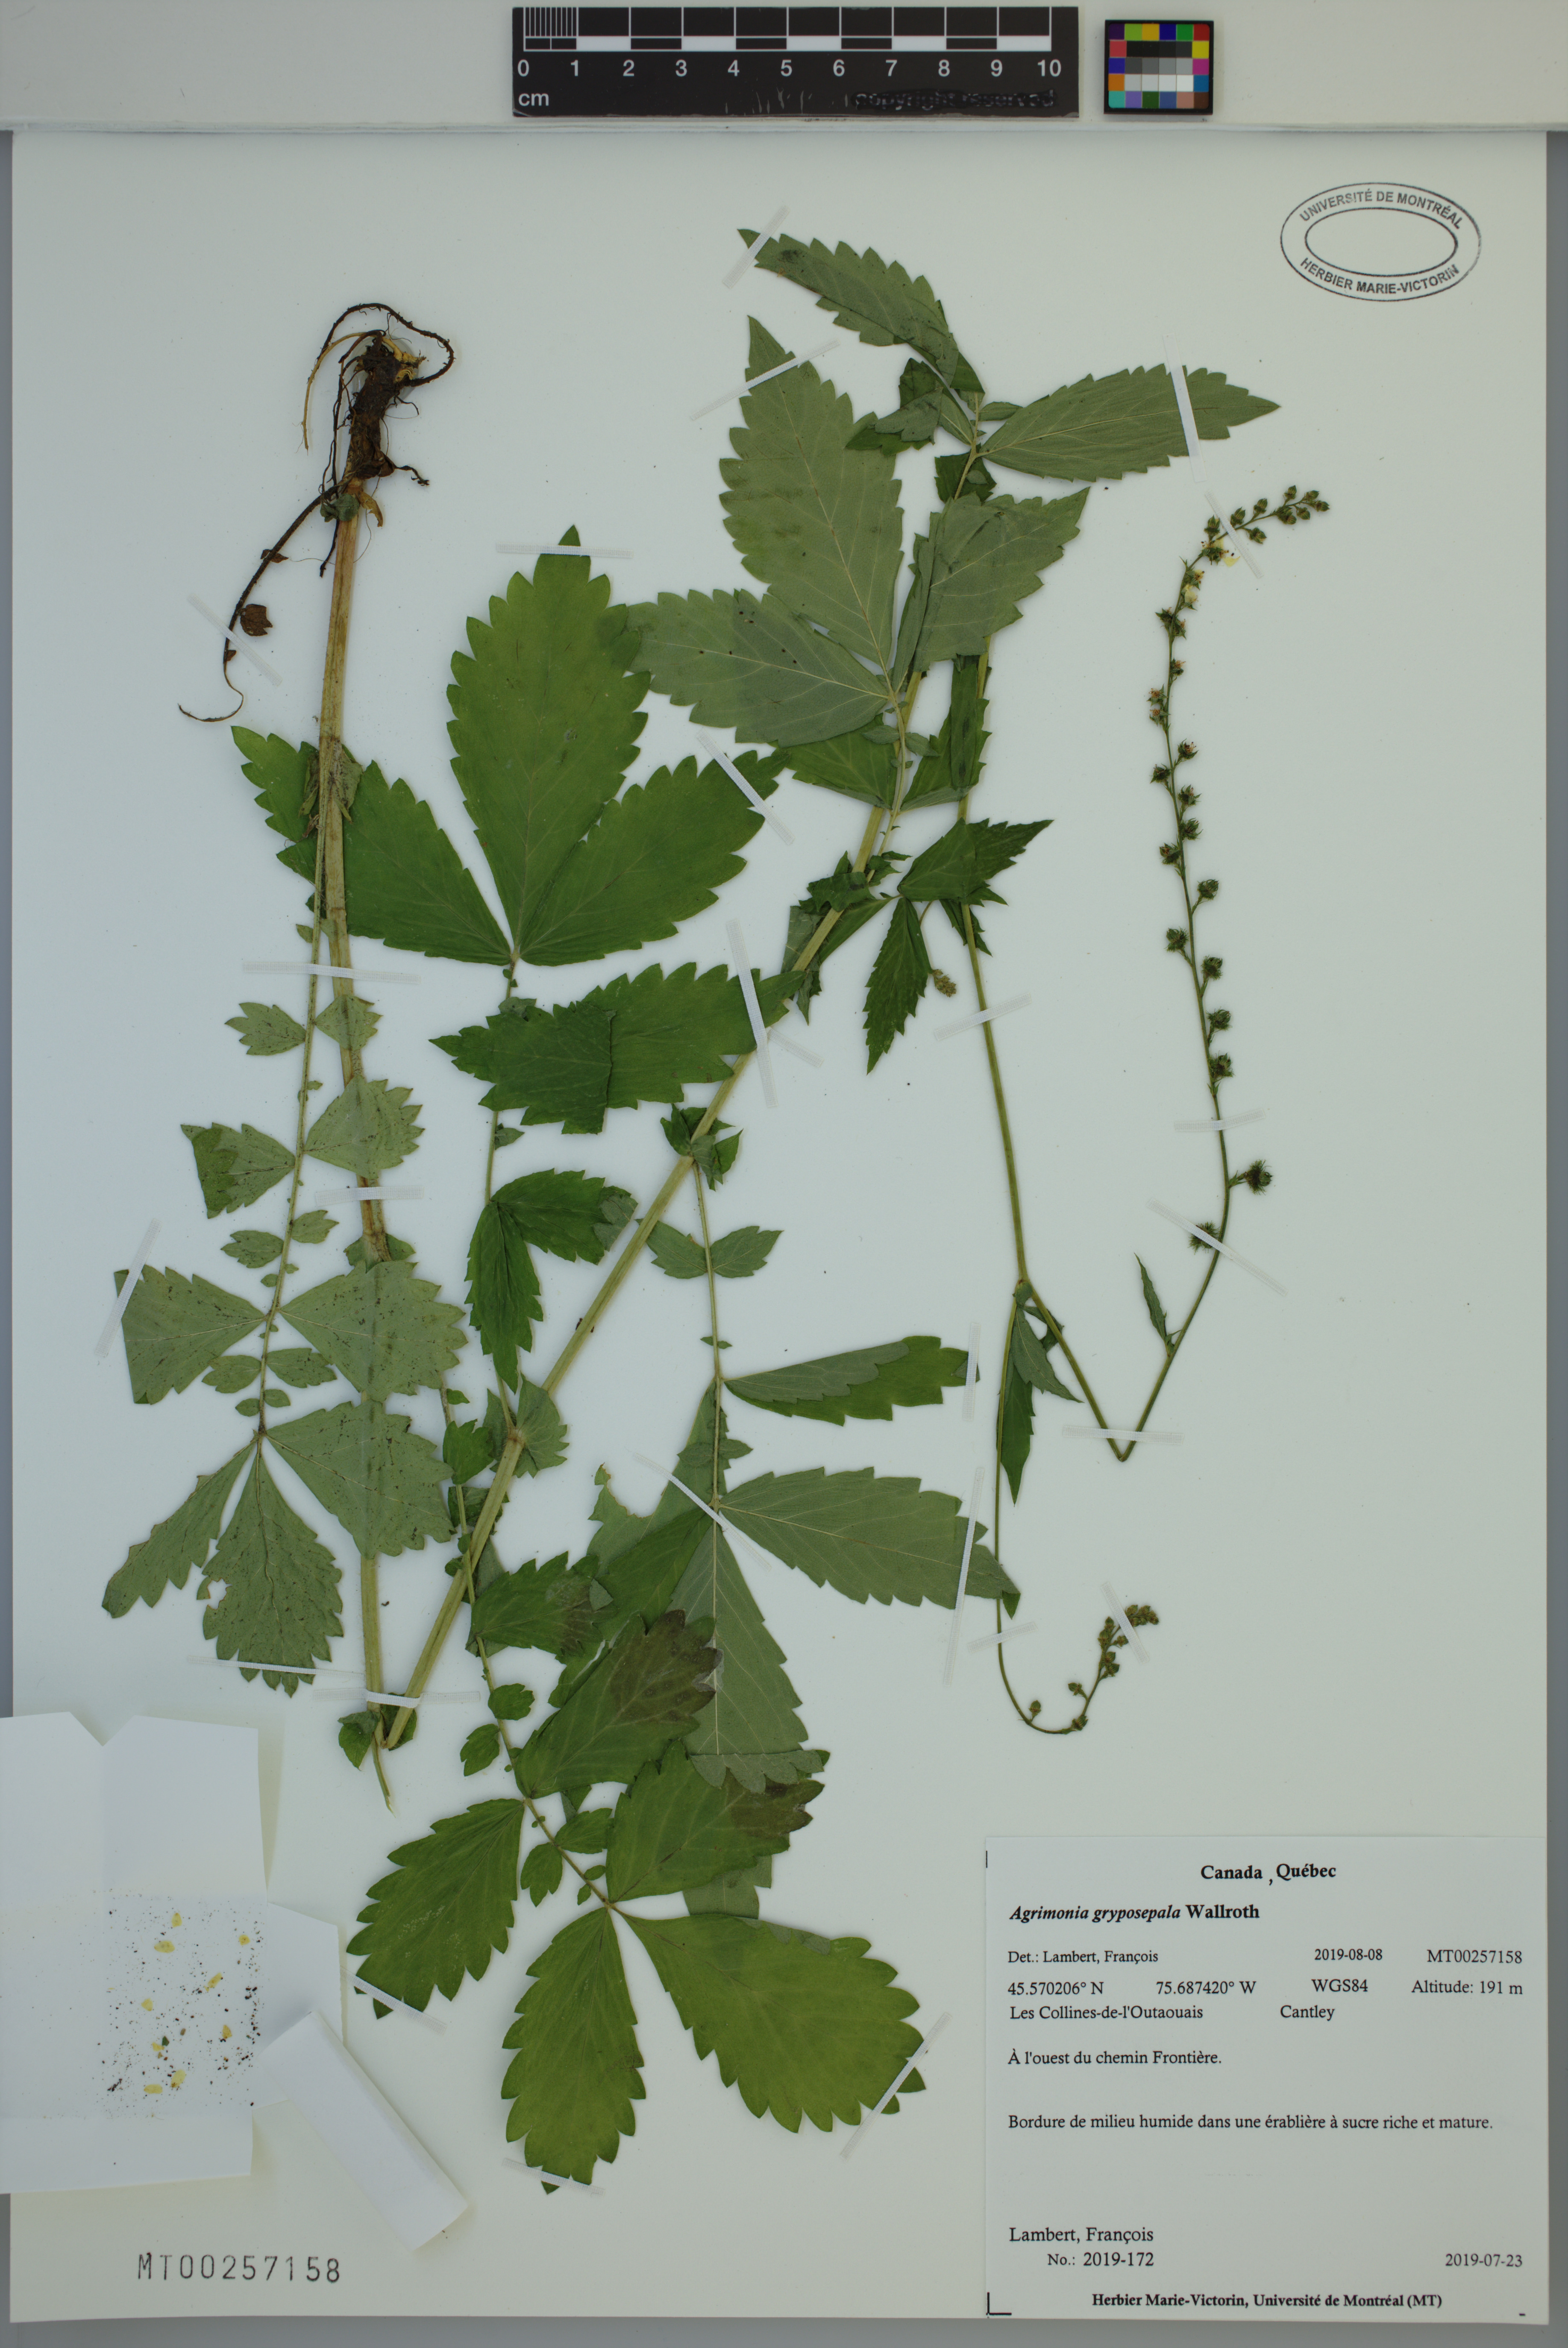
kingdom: Plantae
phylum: Tracheophyta
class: Magnoliopsida
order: Rosales
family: Rosaceae
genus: Agrimonia
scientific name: Agrimonia gryposepala
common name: Common agrimony
